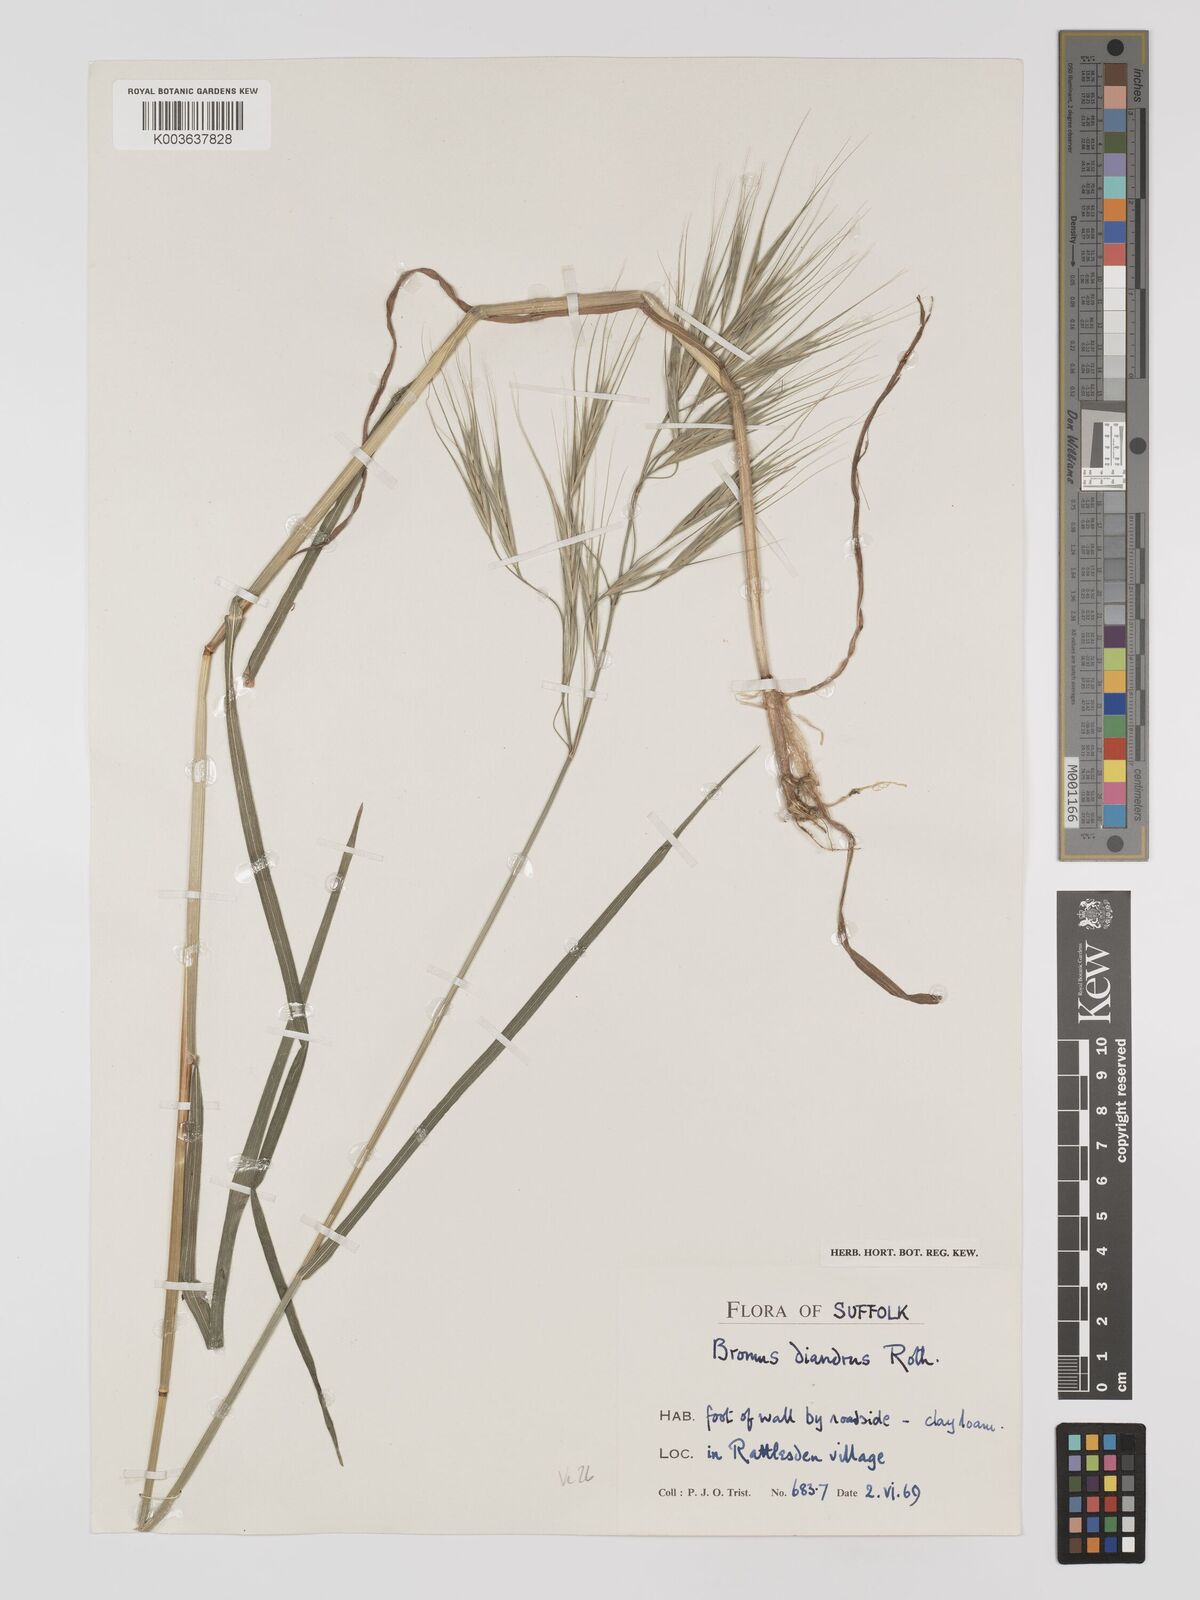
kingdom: Plantae
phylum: Tracheophyta
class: Liliopsida
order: Poales
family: Poaceae
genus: Bromus
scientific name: Bromus
